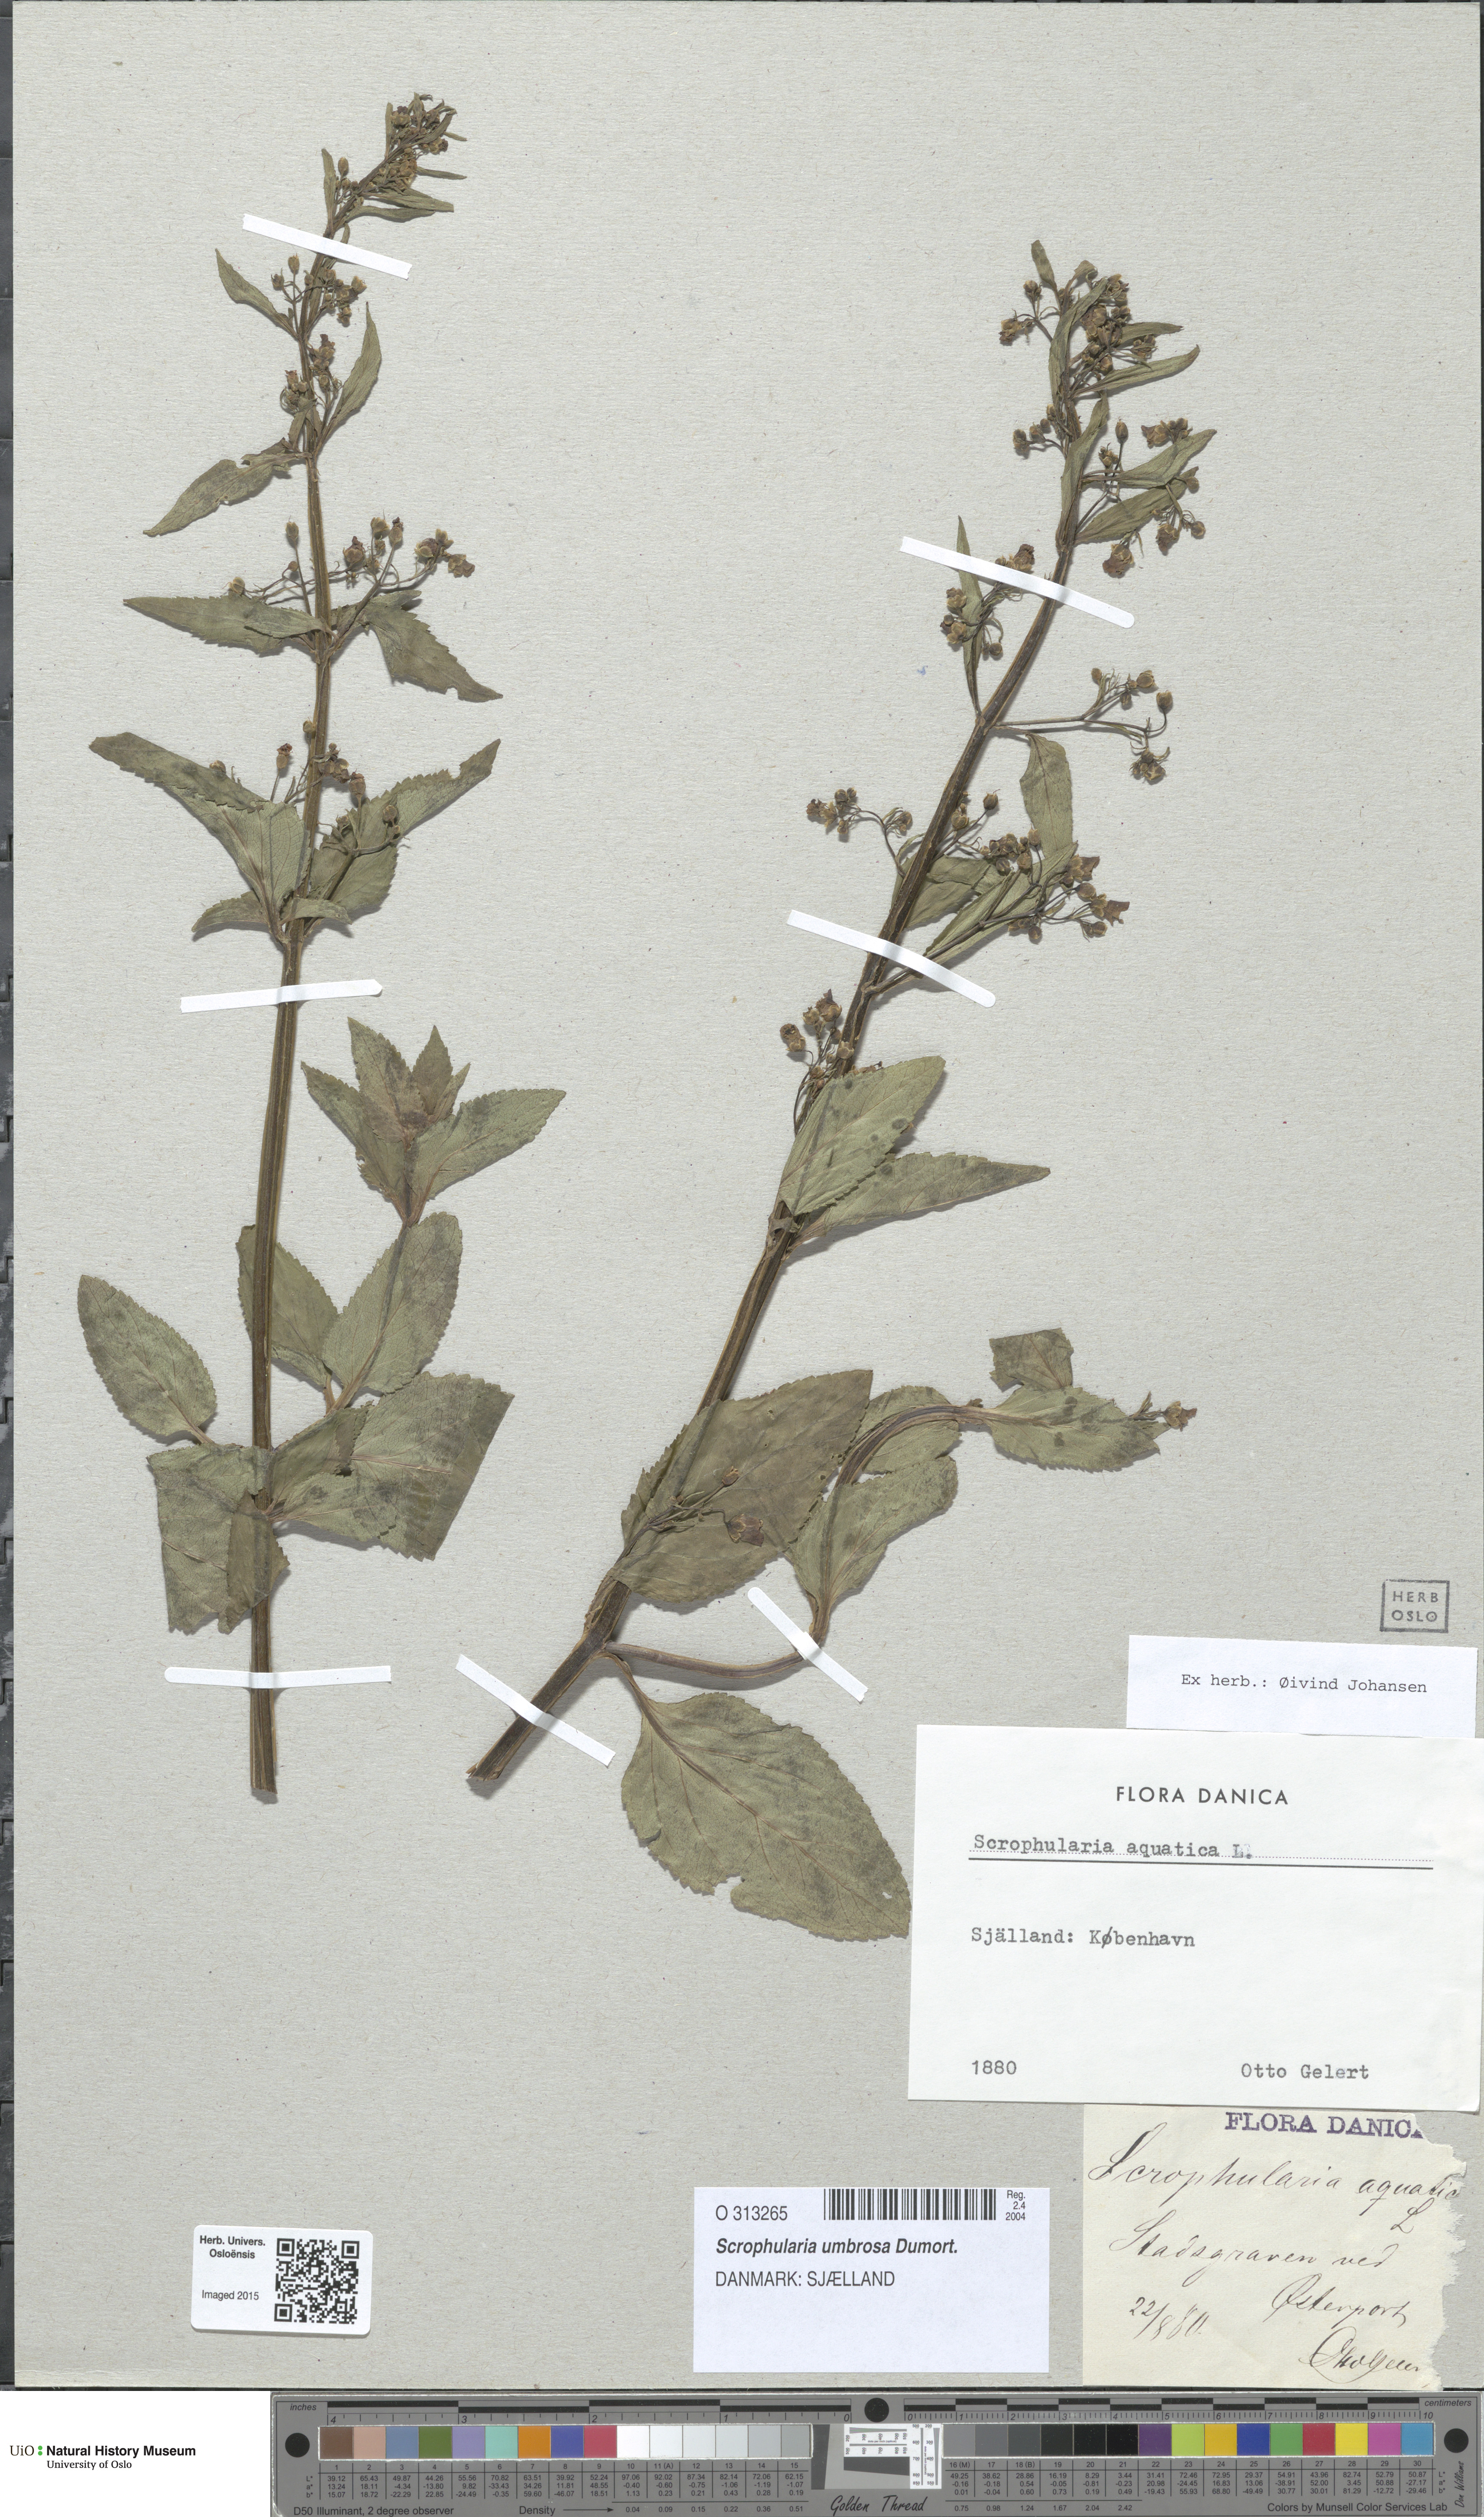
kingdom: Plantae
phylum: Tracheophyta
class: Magnoliopsida
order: Lamiales
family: Scrophulariaceae
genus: Scrophularia
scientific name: Scrophularia oblongifolia
